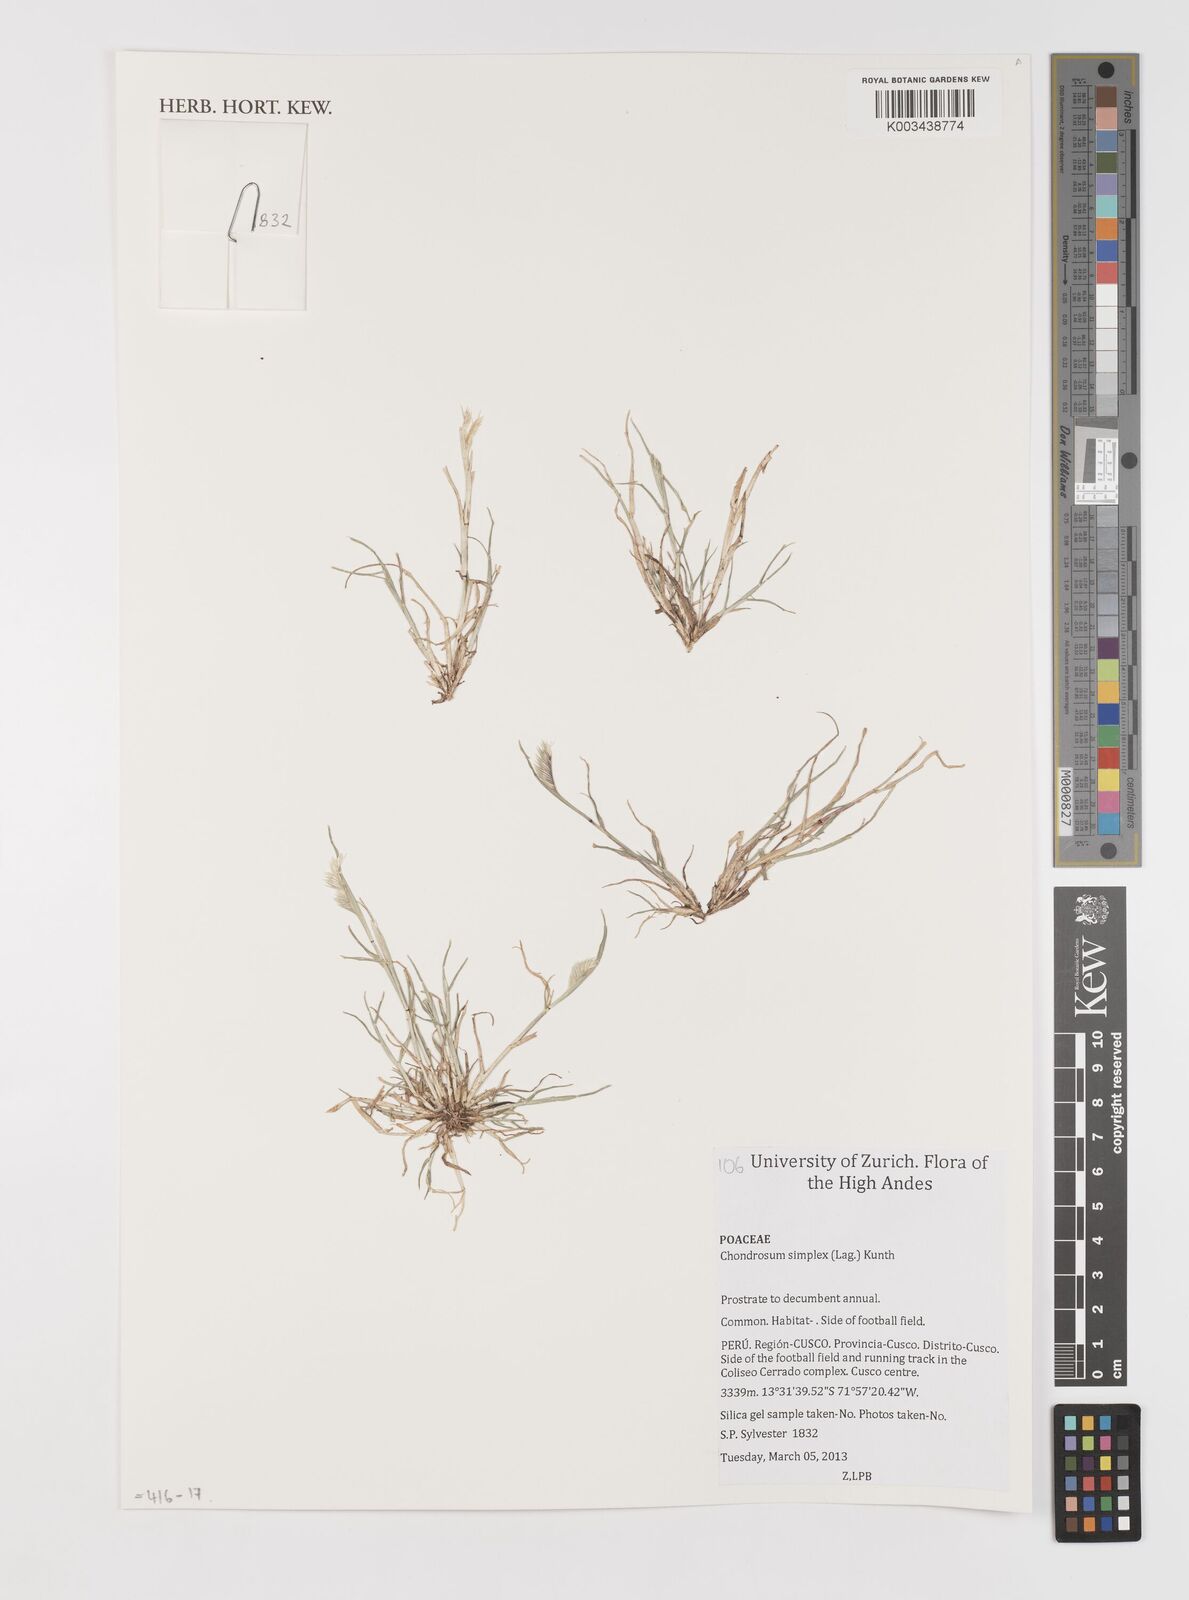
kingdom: Plantae
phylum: Tracheophyta
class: Liliopsida
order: Poales
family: Poaceae
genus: Bouteloua
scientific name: Bouteloua simplex
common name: Mat grama
